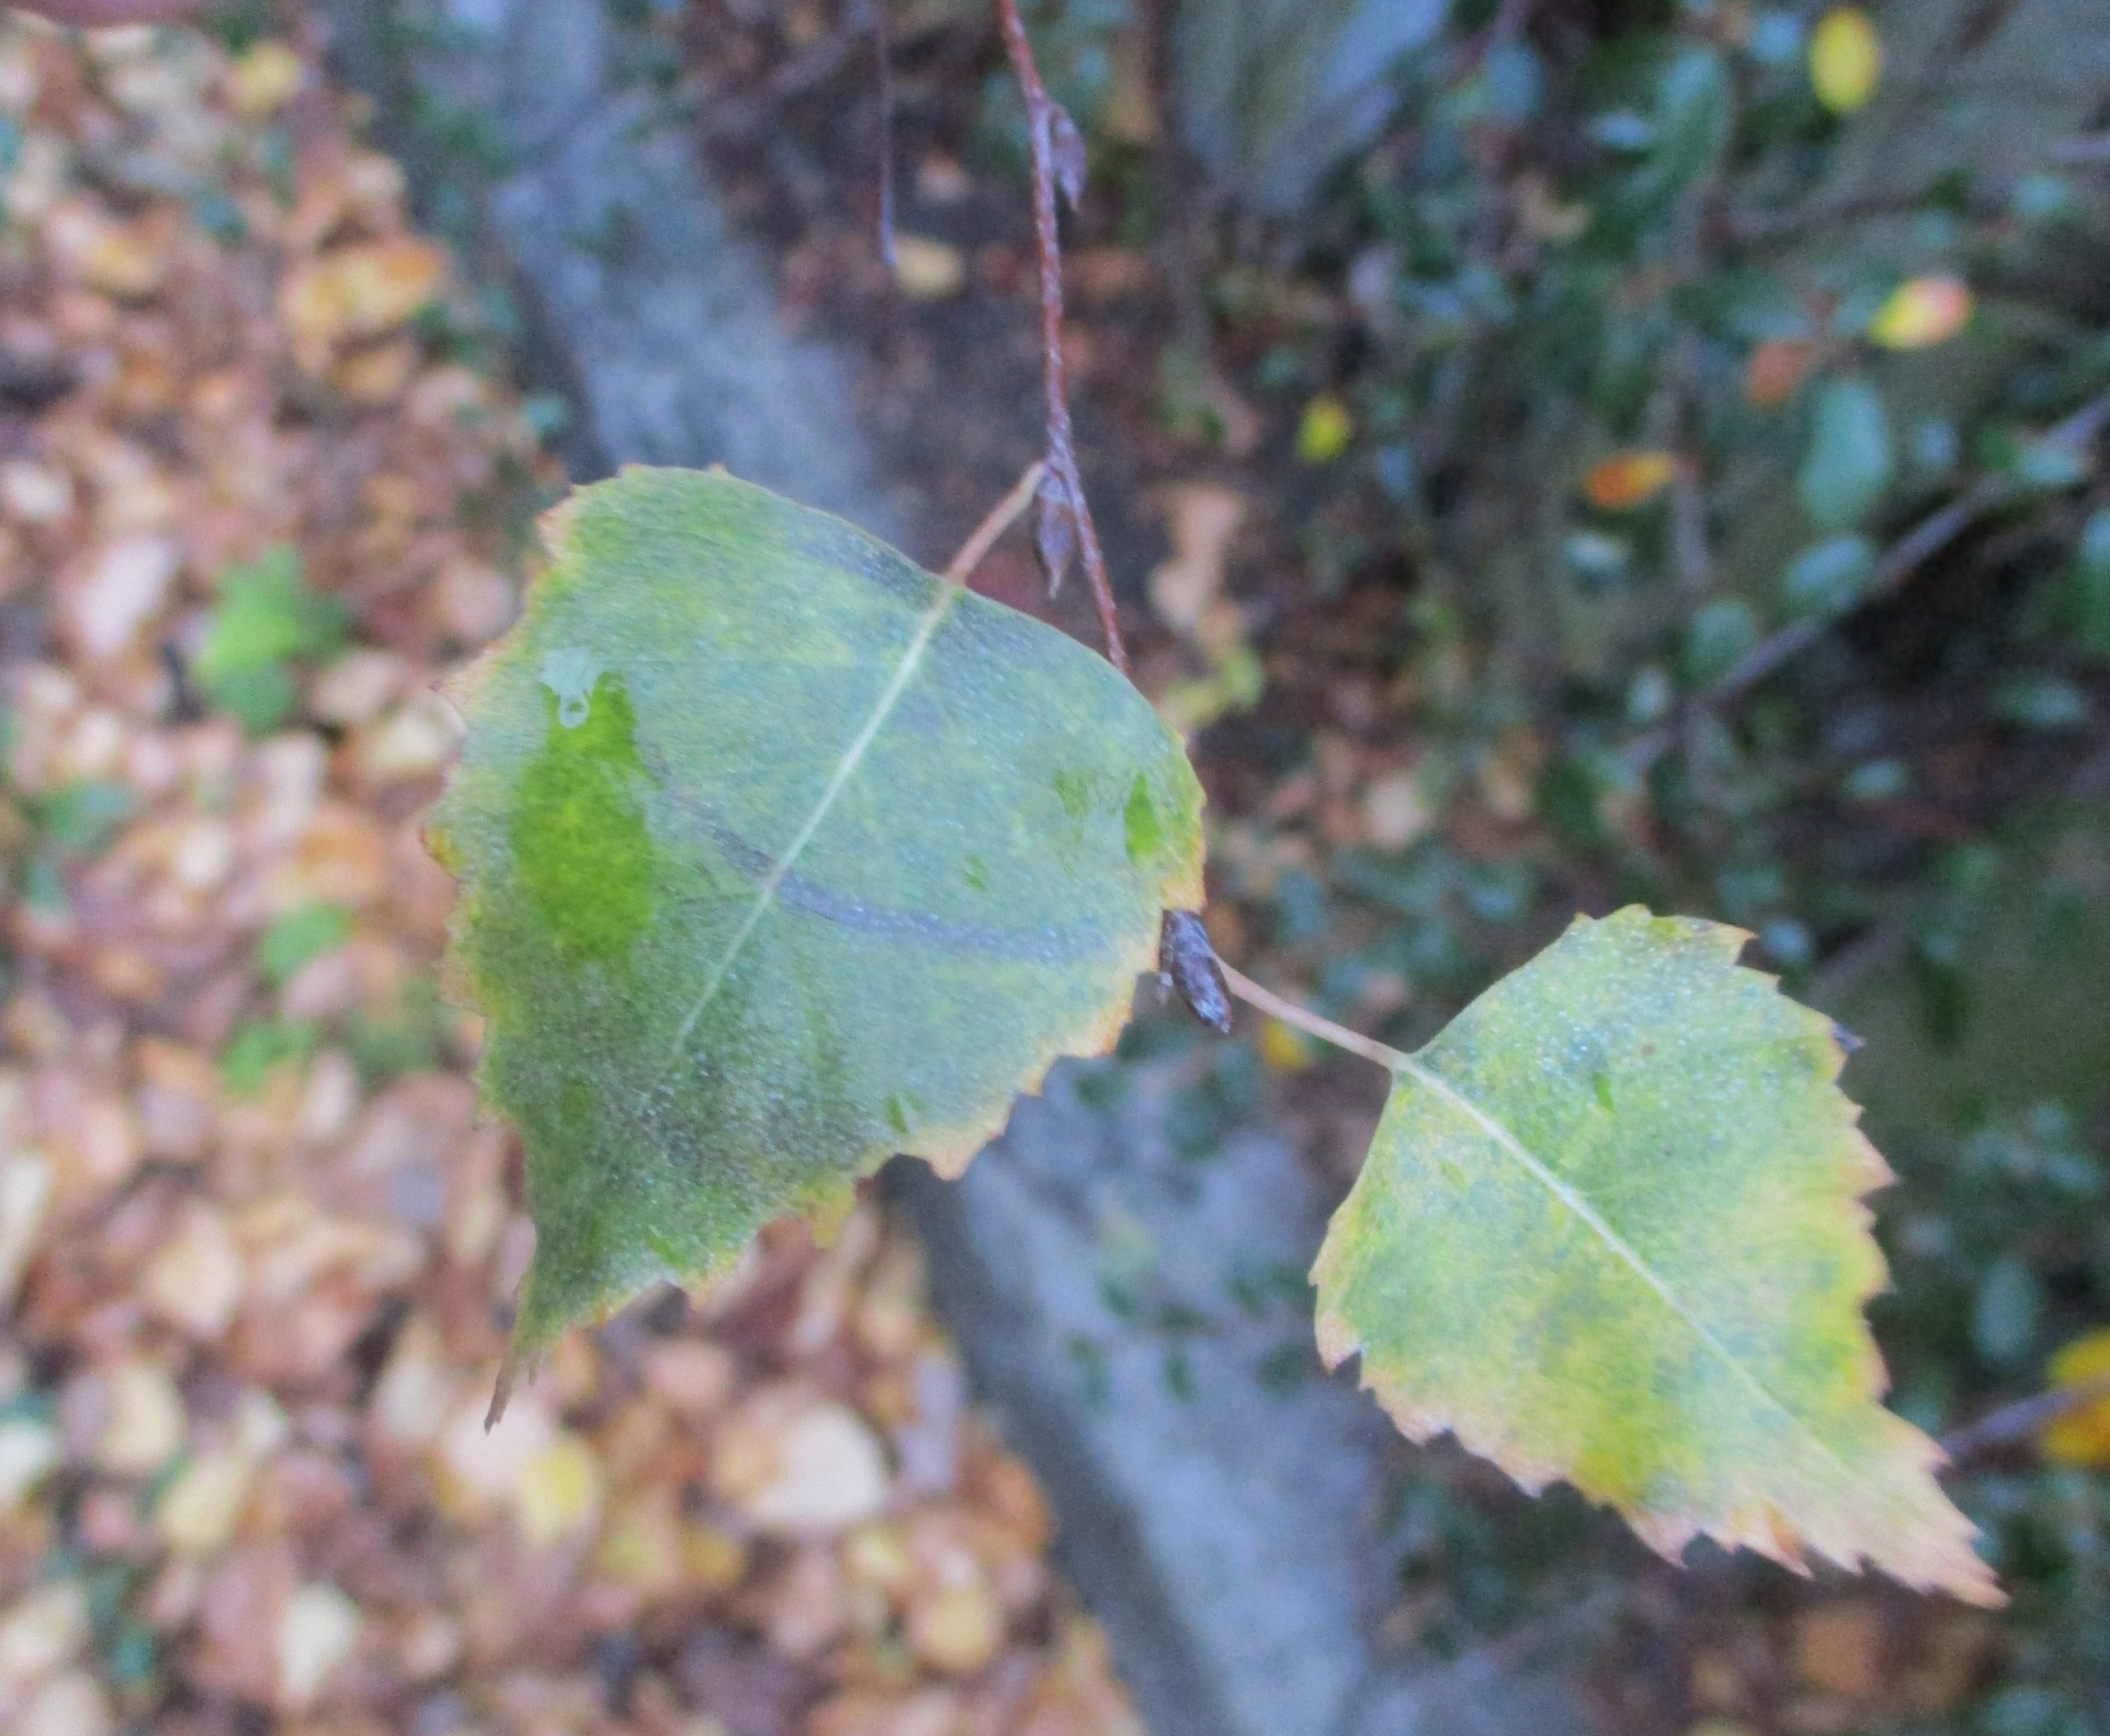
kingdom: Plantae
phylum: Tracheophyta
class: Magnoliopsida
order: Fagales
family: Betulaceae
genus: Betula
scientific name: Betula pendula
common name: Vorte-birk
